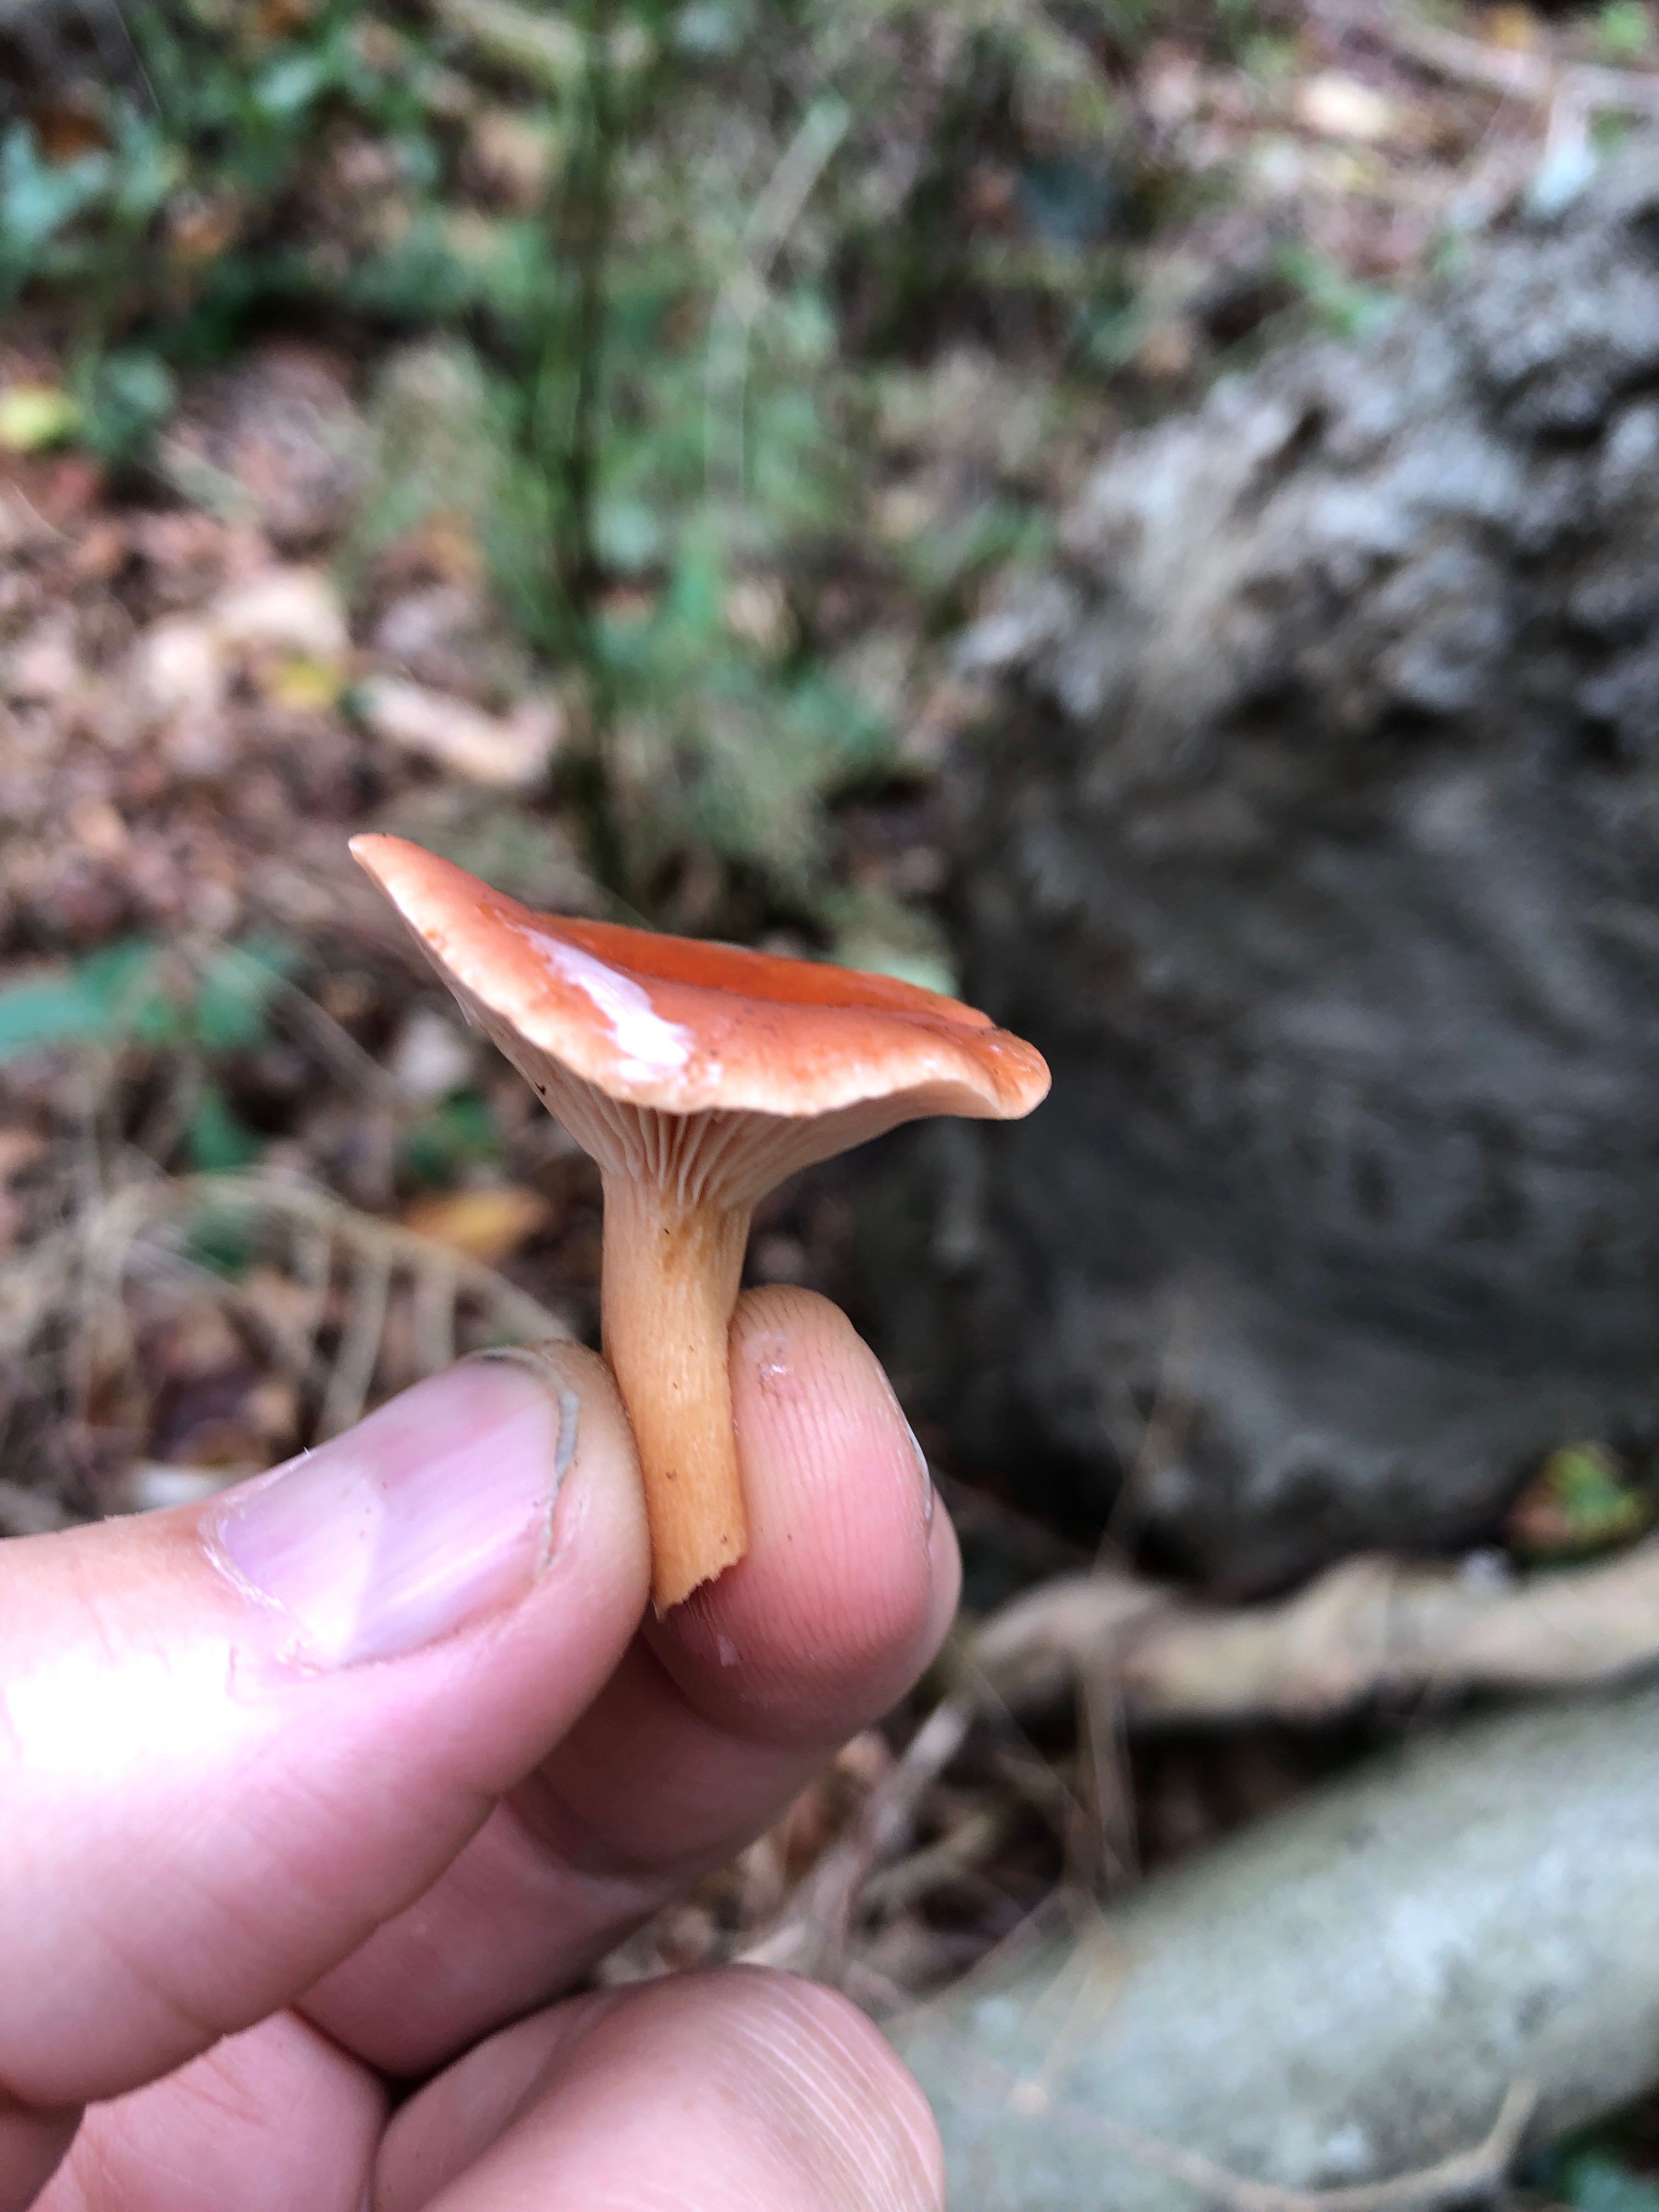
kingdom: Fungi
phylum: Basidiomycota
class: Agaricomycetes
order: Russulales
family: Russulaceae
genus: Lactarius
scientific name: Lactarius
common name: mælkehat
